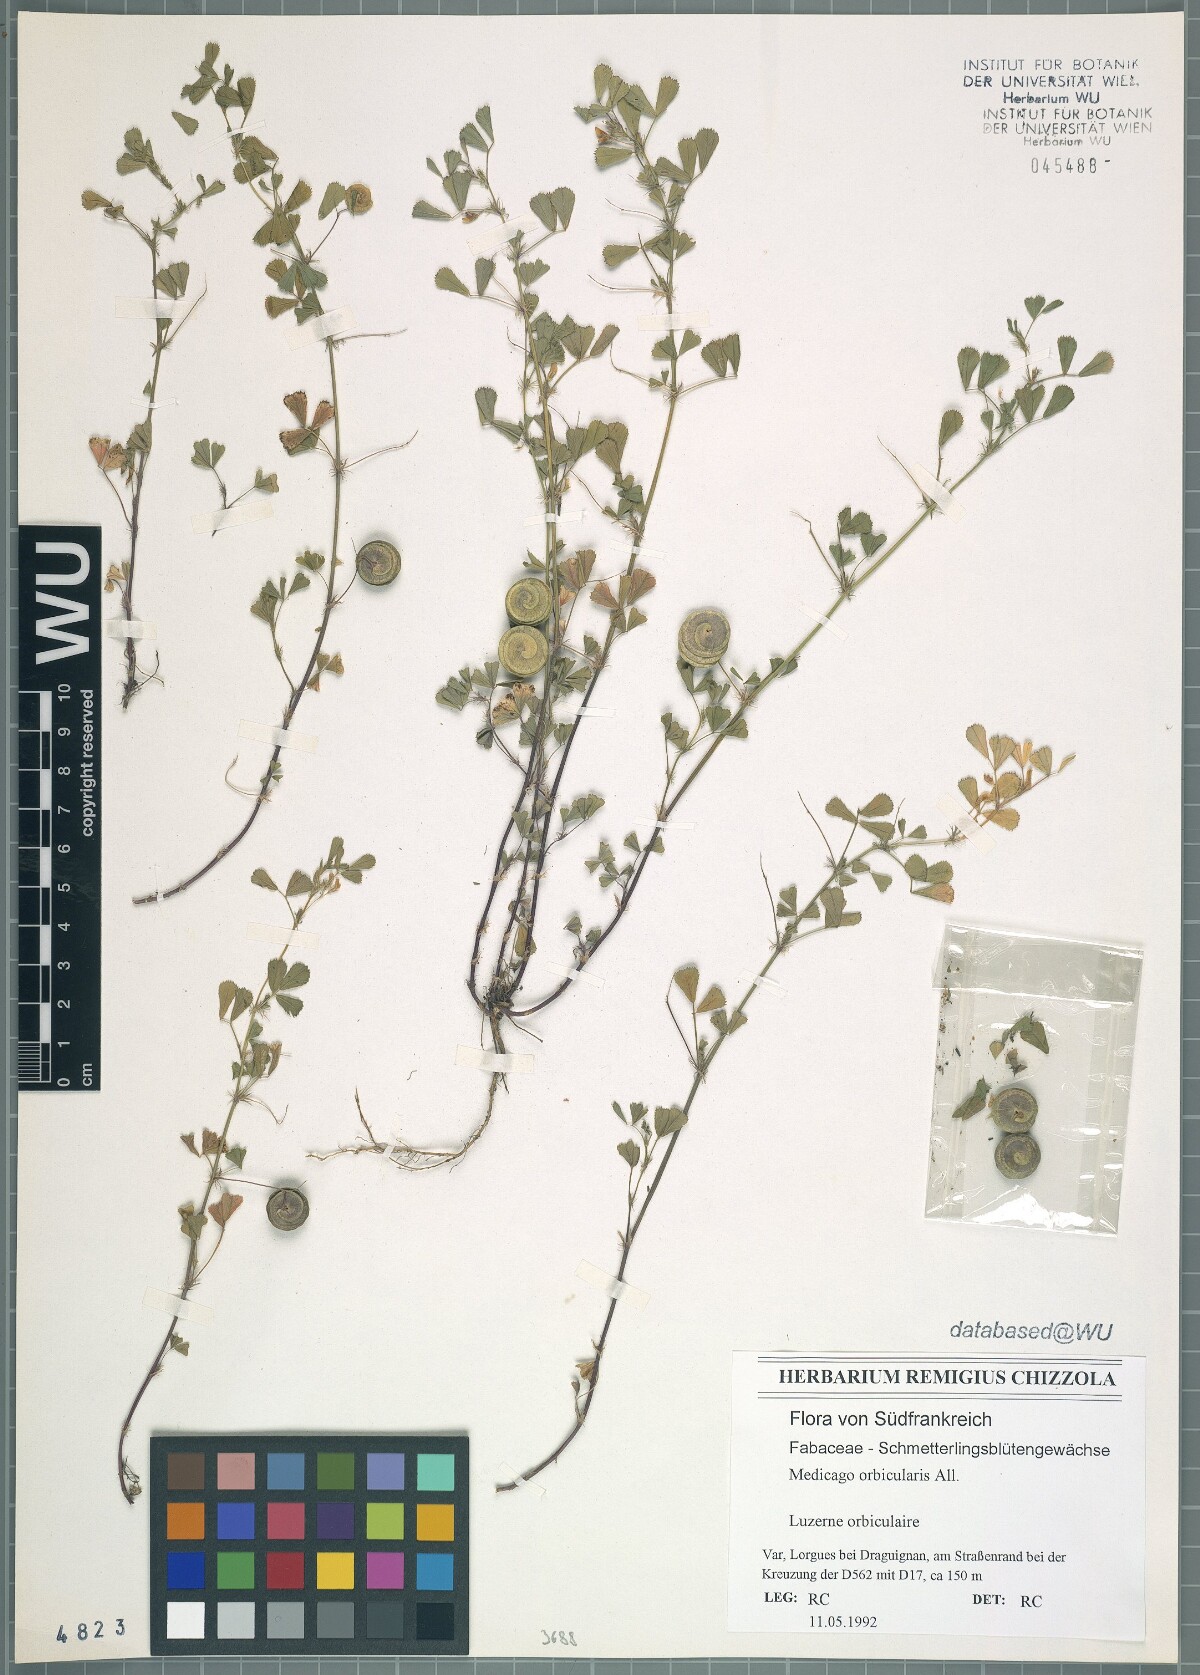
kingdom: Plantae
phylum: Tracheophyta
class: Magnoliopsida
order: Fabales
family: Fabaceae
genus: Medicago
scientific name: Medicago orbicularis
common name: Button medick
